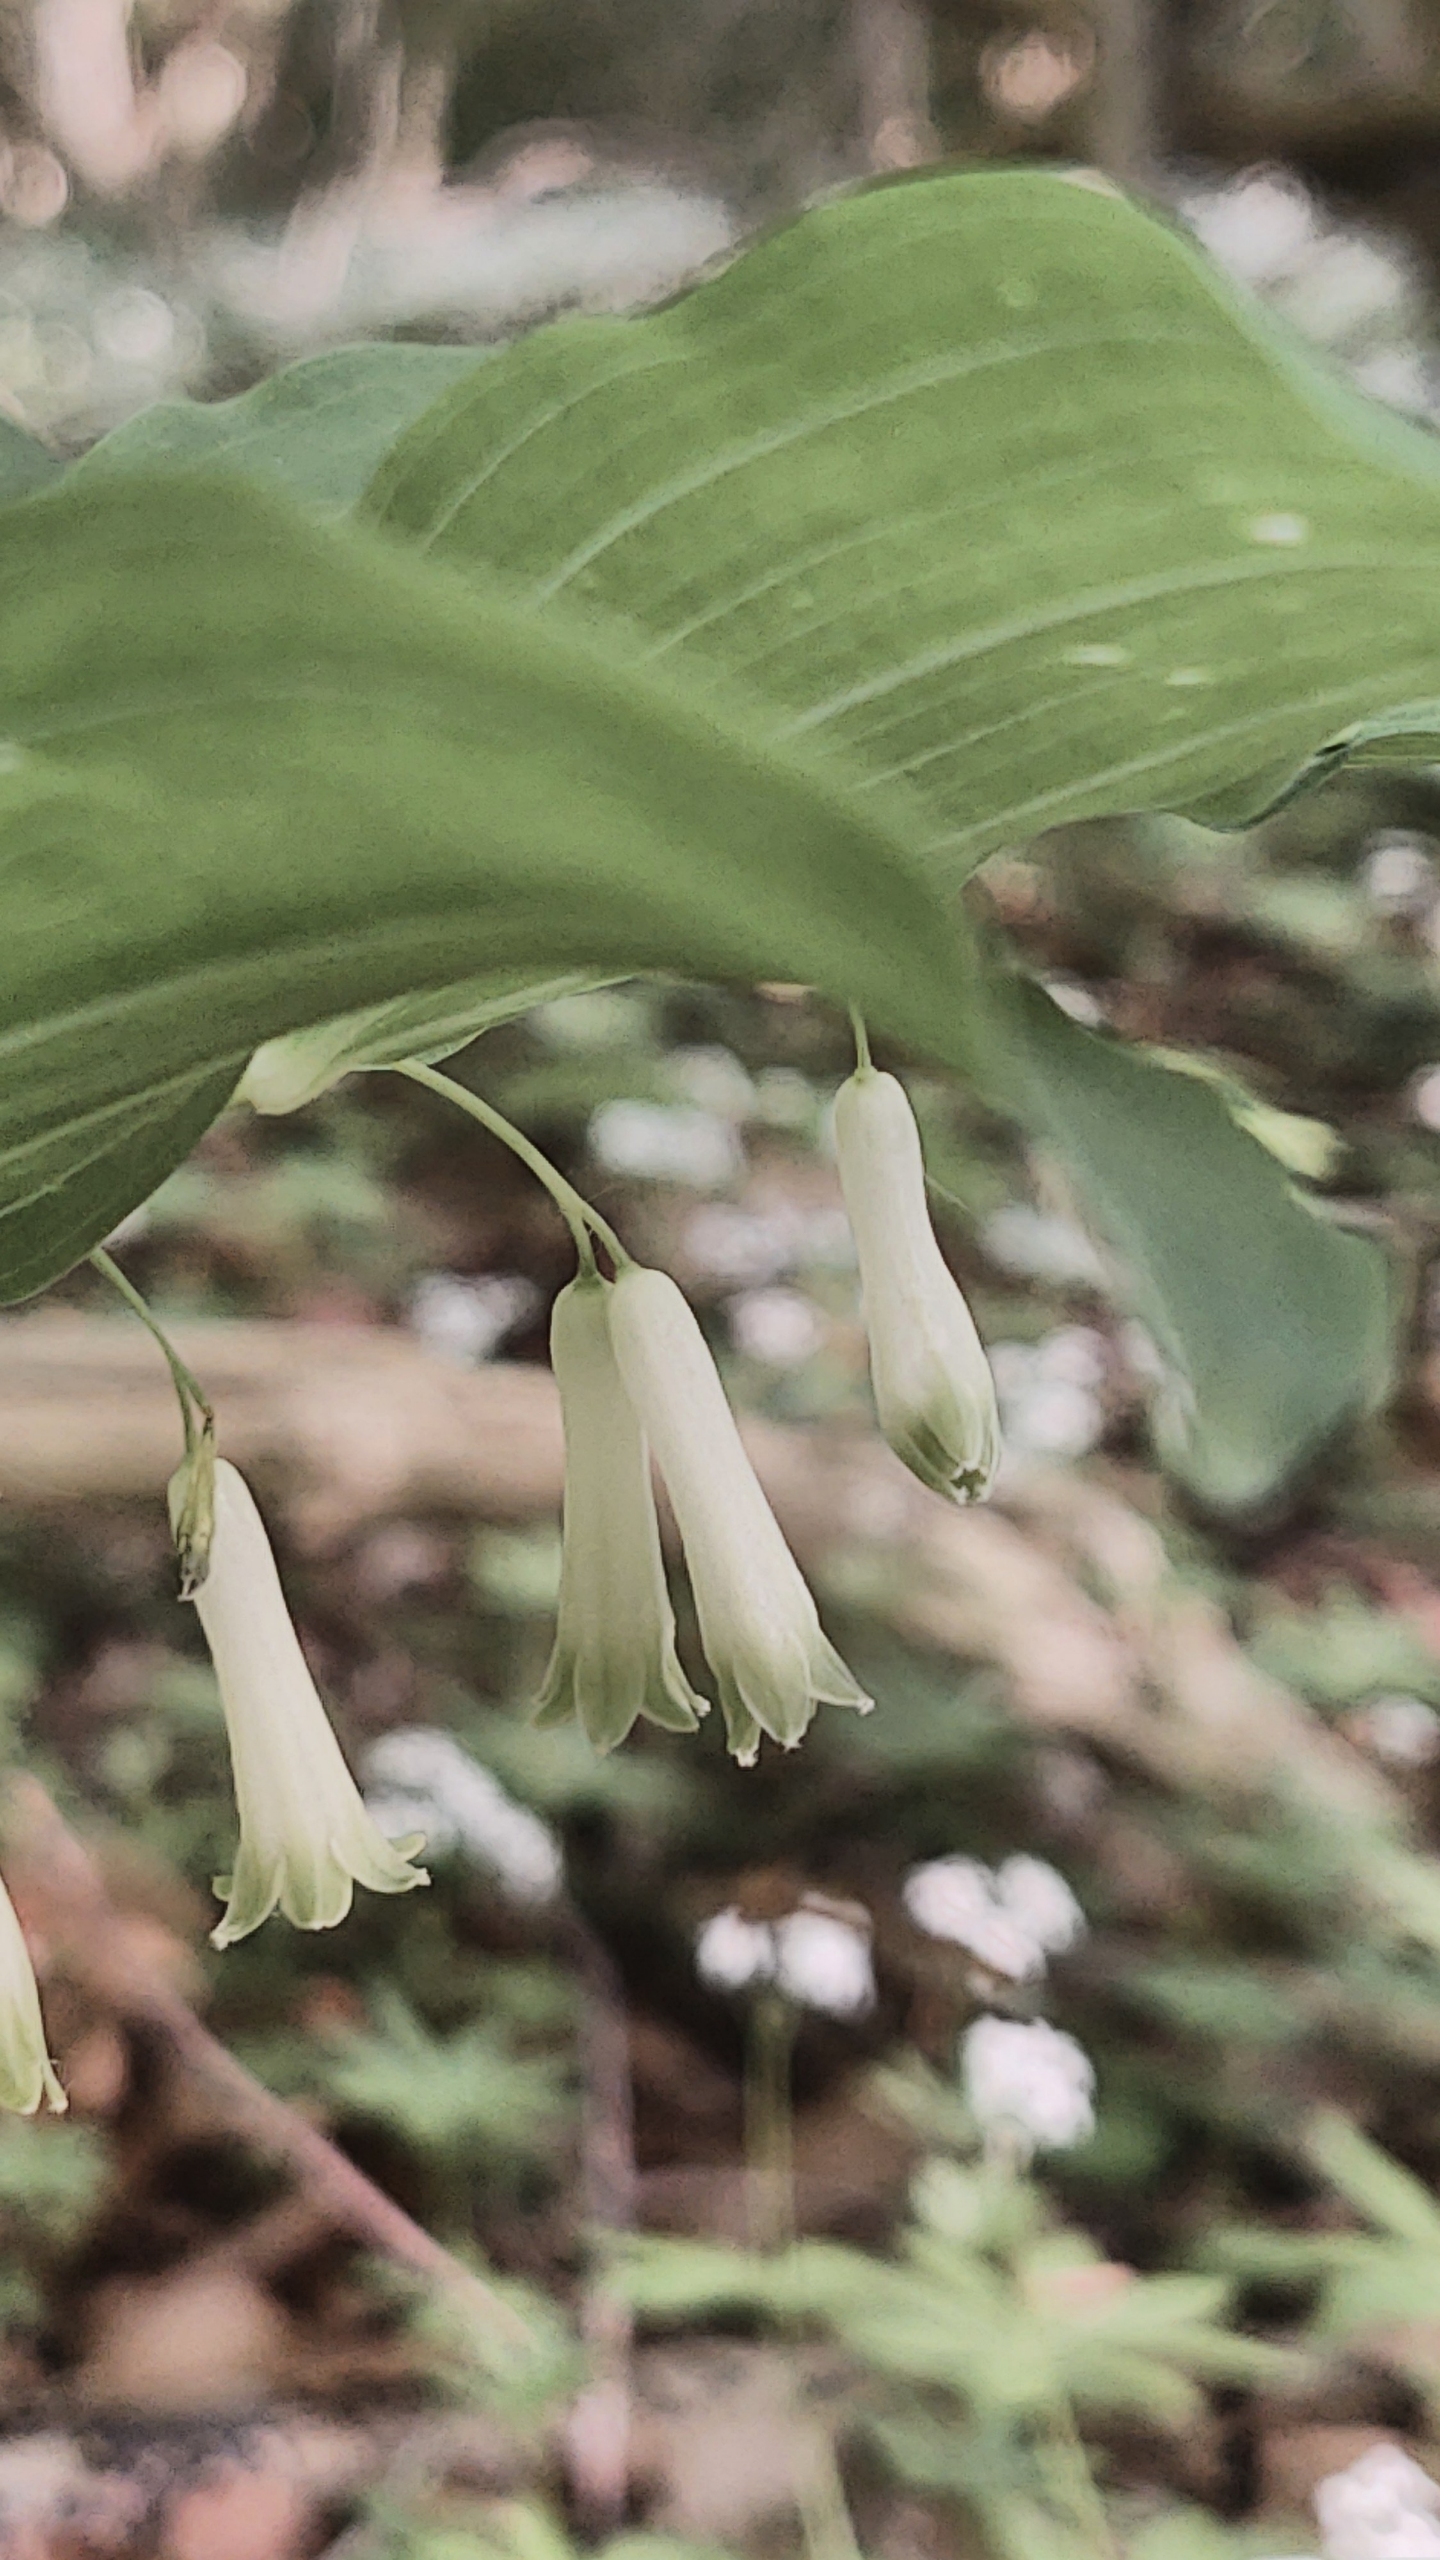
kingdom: Plantae
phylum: Tracheophyta
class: Liliopsida
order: Asparagales
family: Asparagaceae
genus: Polygonatum
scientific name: Polygonatum multiflorum
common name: Stor konval
